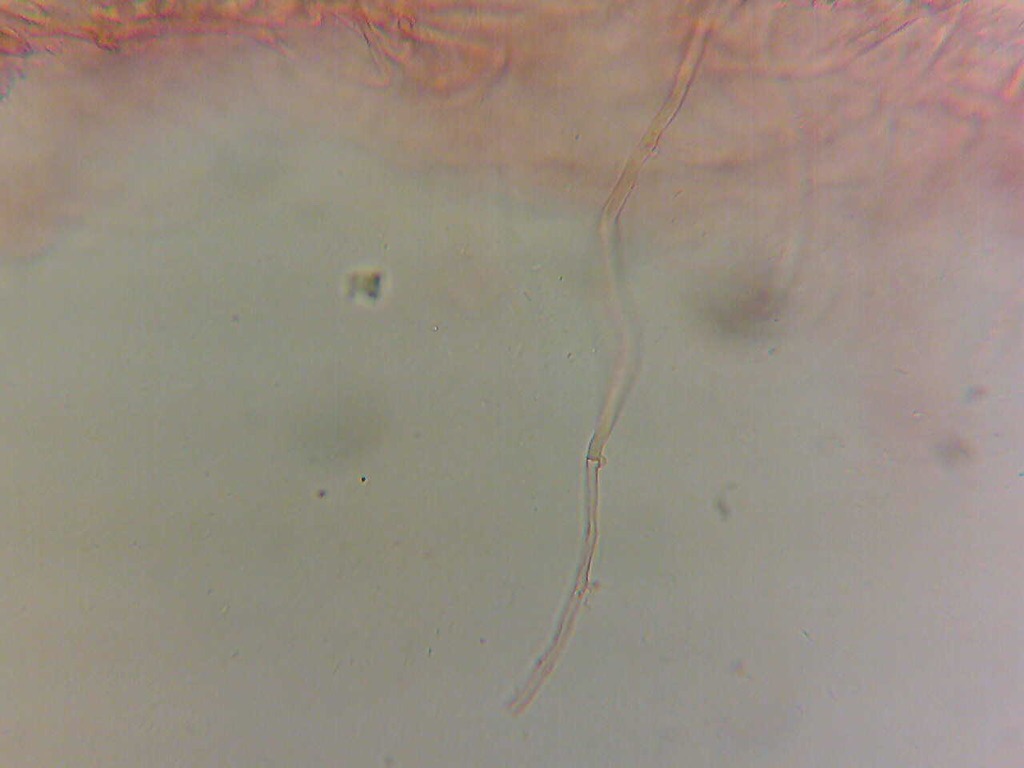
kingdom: Fungi
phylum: Basidiomycota
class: Agaricomycetes
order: Agaricales
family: Crepidotaceae
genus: Crepidotus
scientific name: Crepidotus cesatii
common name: almindelig muslingesvamp
